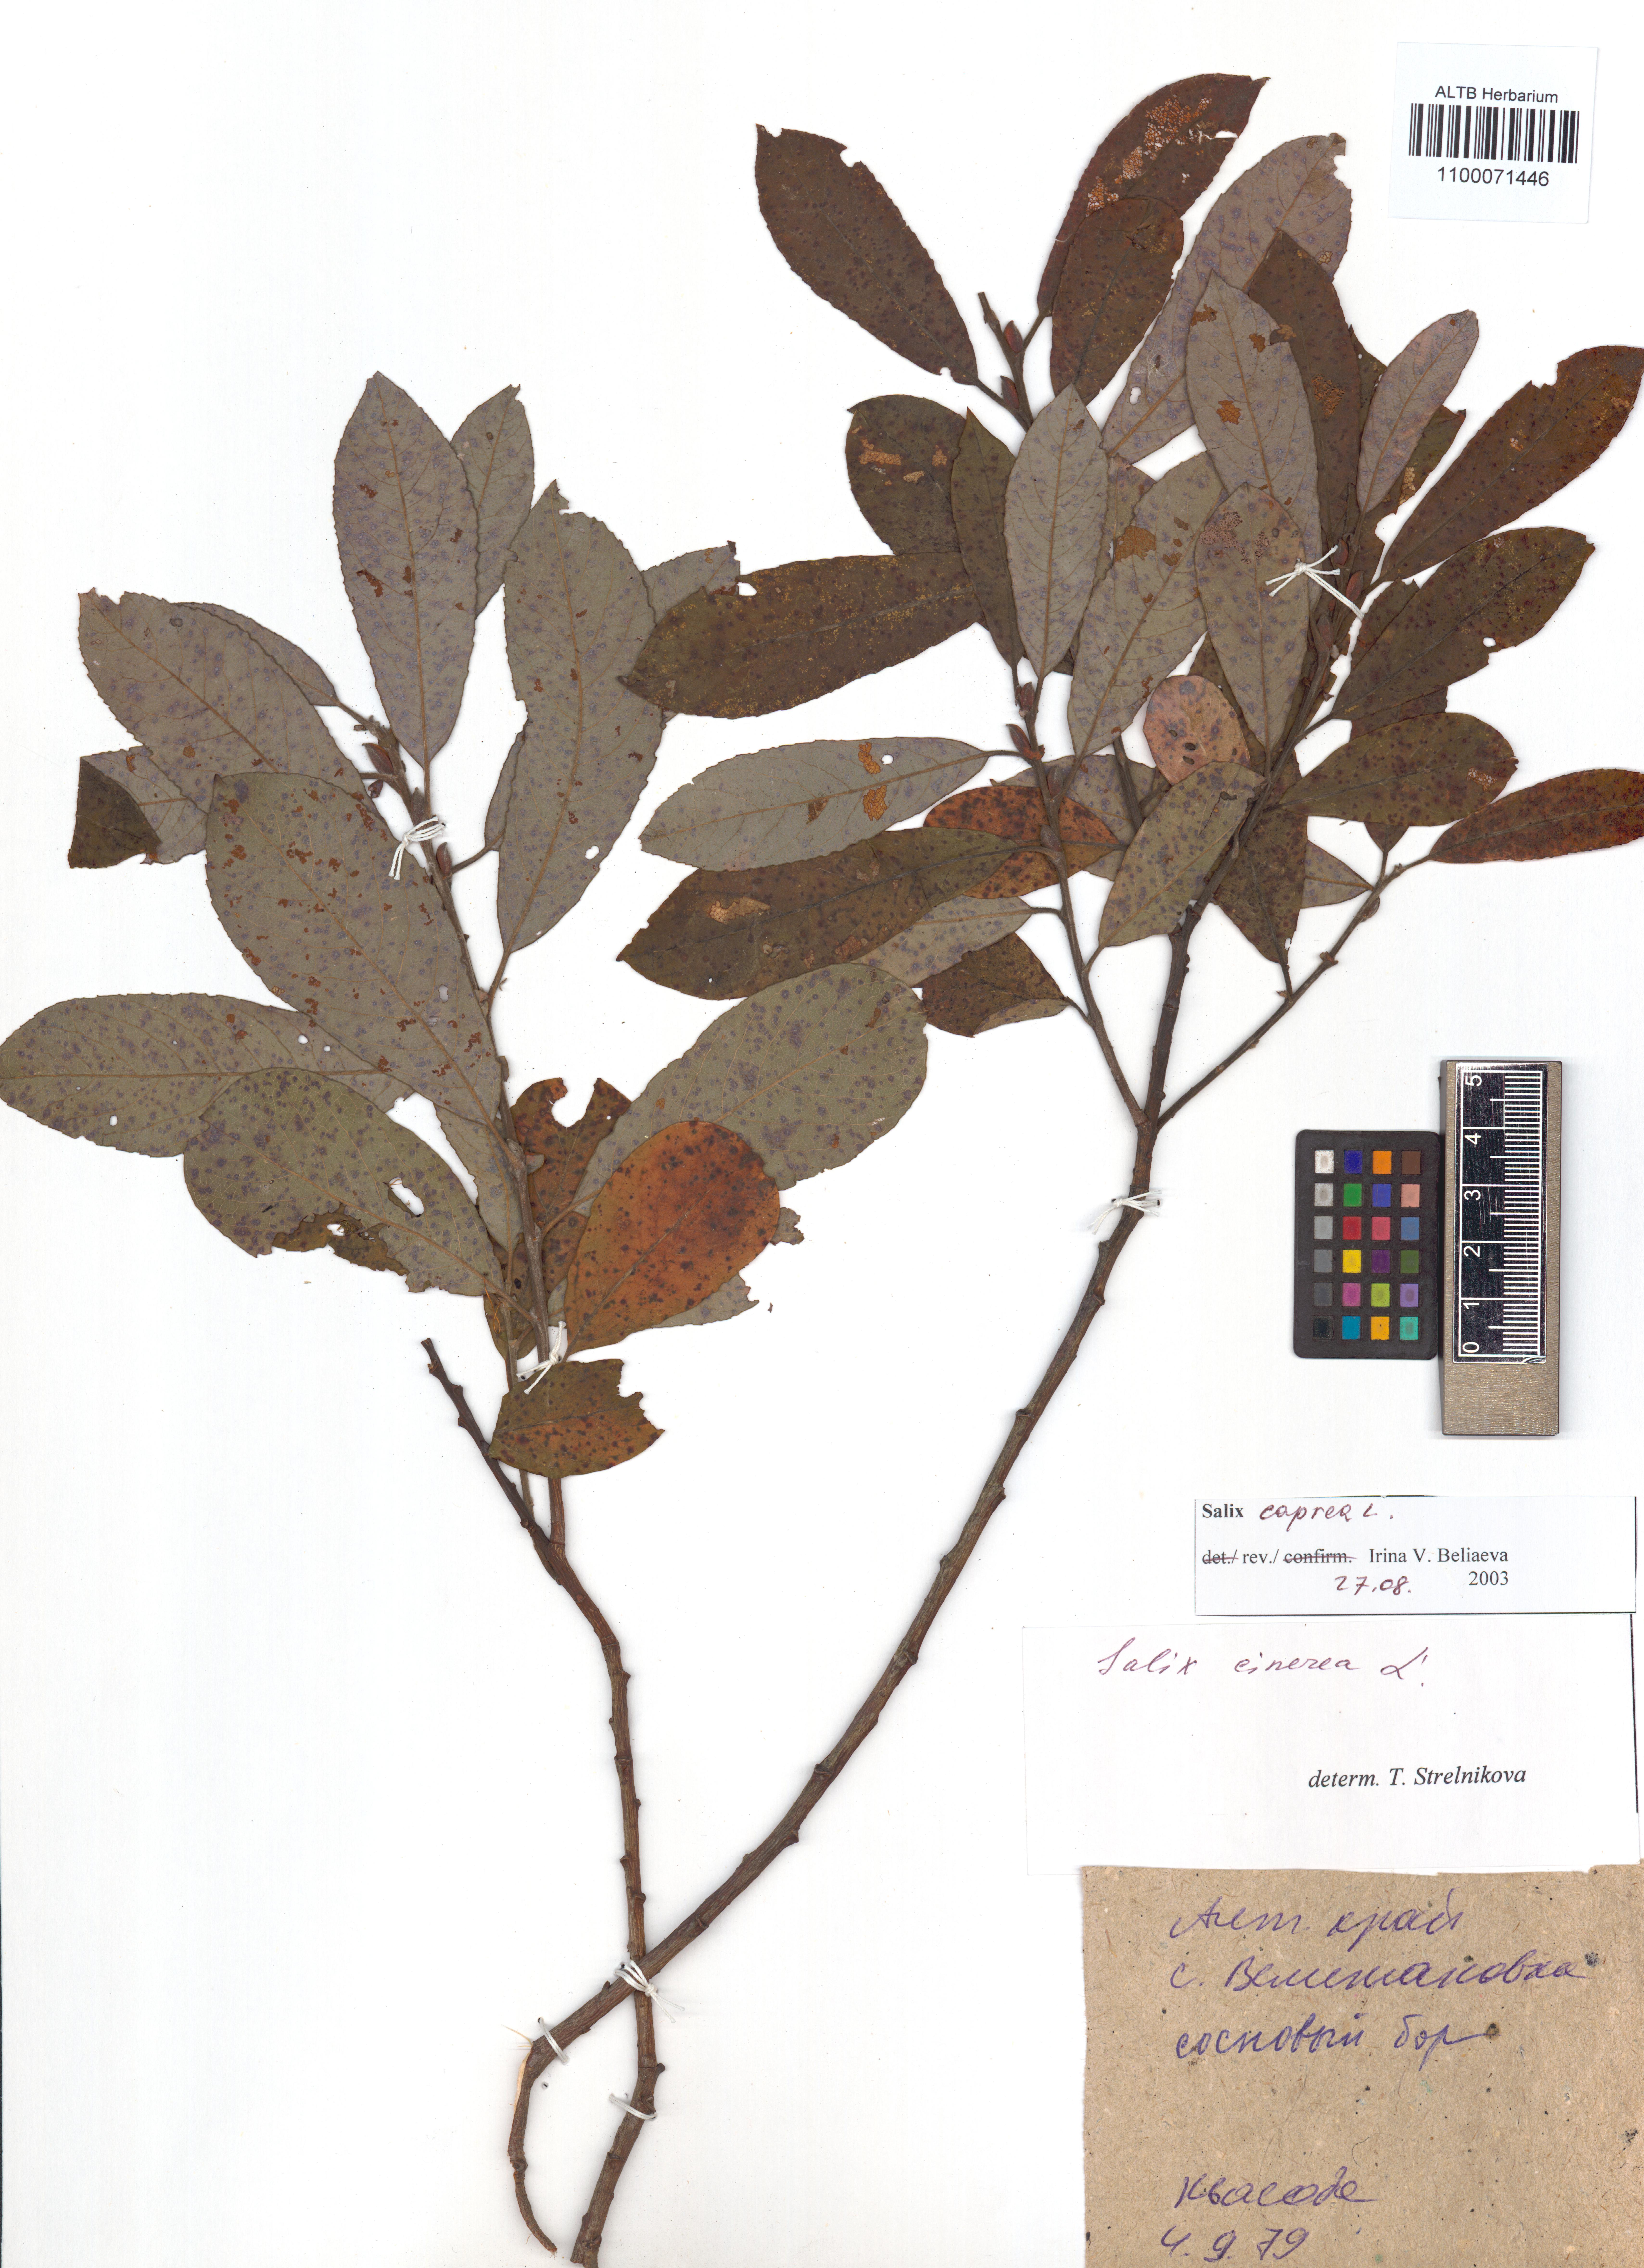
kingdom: Plantae
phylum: Tracheophyta
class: Magnoliopsida
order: Malpighiales
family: Salicaceae
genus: Salix
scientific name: Salix caprea
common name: Goat willow
